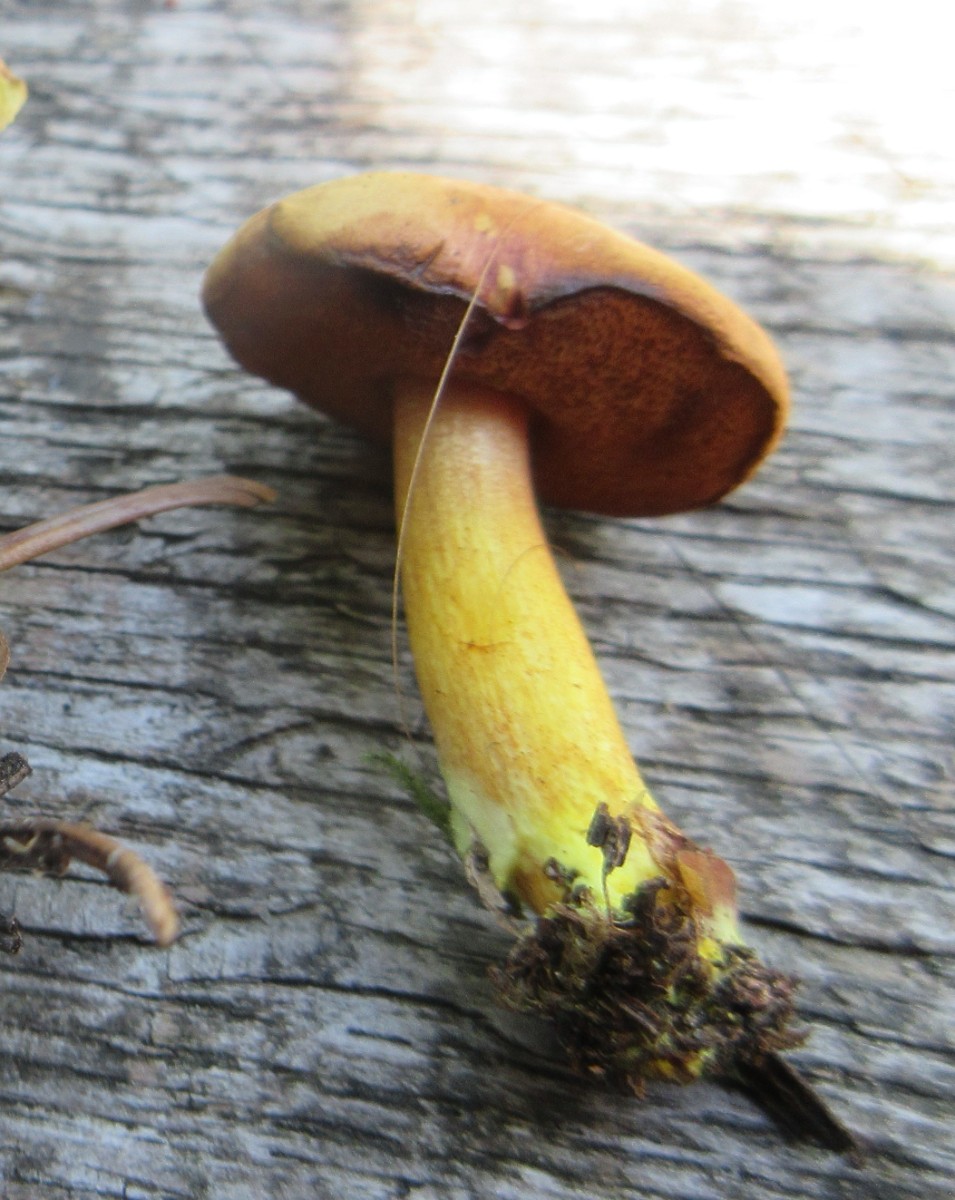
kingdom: Fungi
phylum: Basidiomycota
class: Agaricomycetes
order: Boletales
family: Boletaceae
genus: Chalciporus
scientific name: Chalciporus piperatus
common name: peberrørhat
